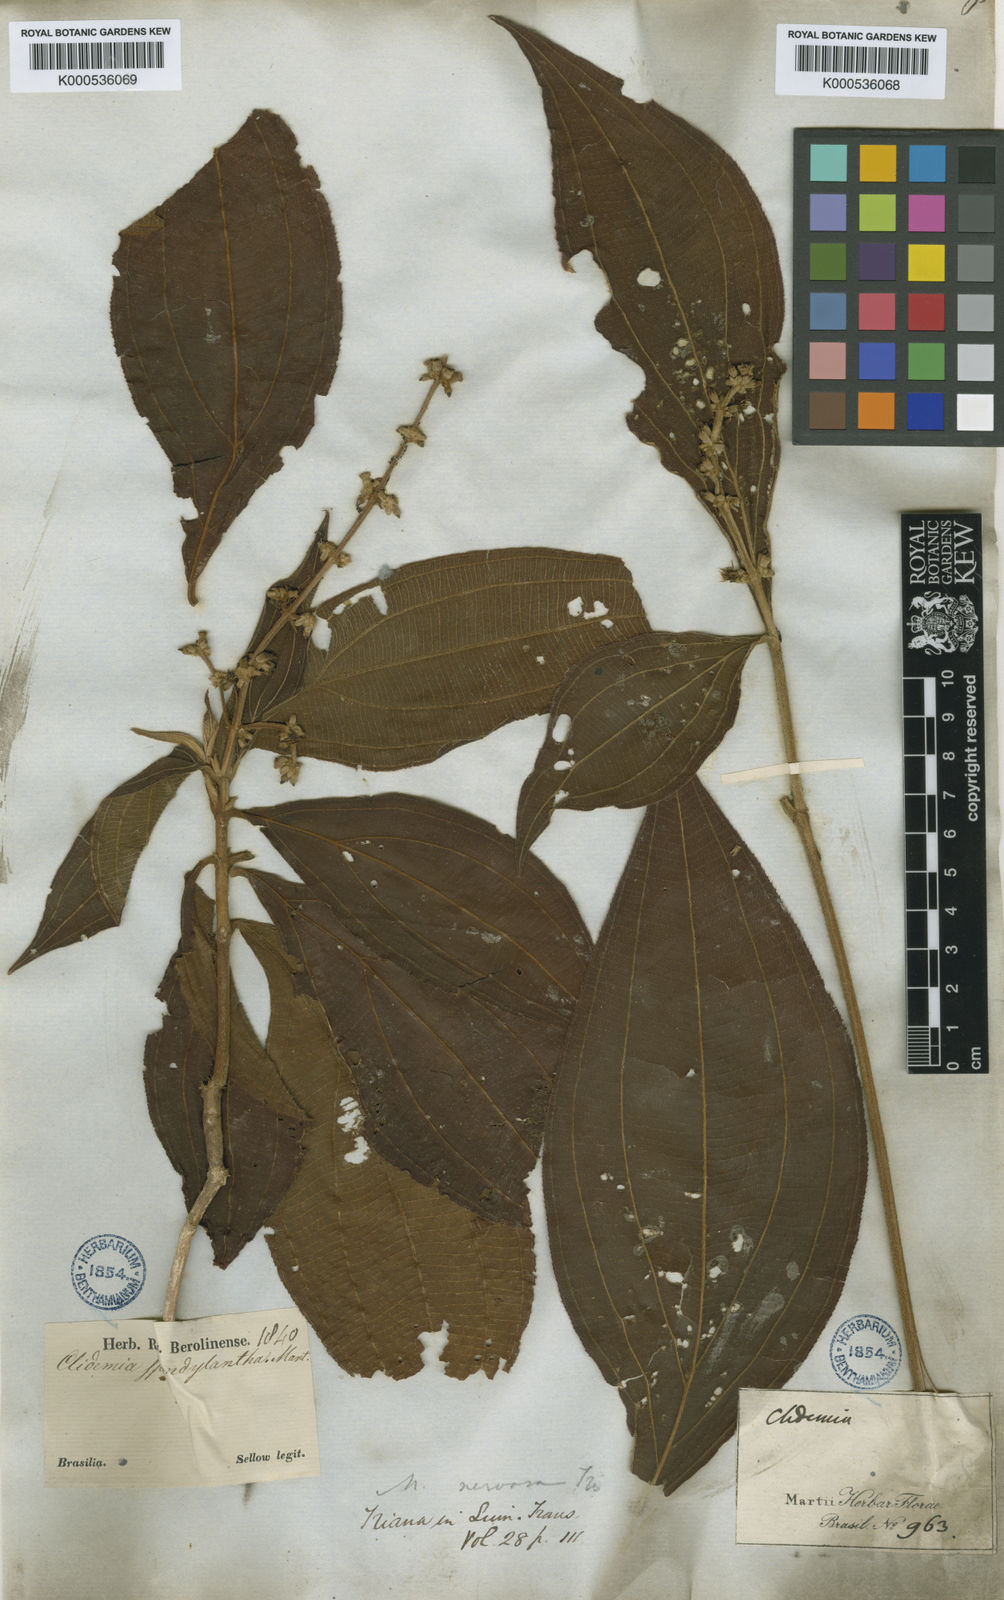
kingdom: Plantae
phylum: Tracheophyta
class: Magnoliopsida
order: Myrtales
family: Melastomataceae
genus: Miconia
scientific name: Miconia nervosa
